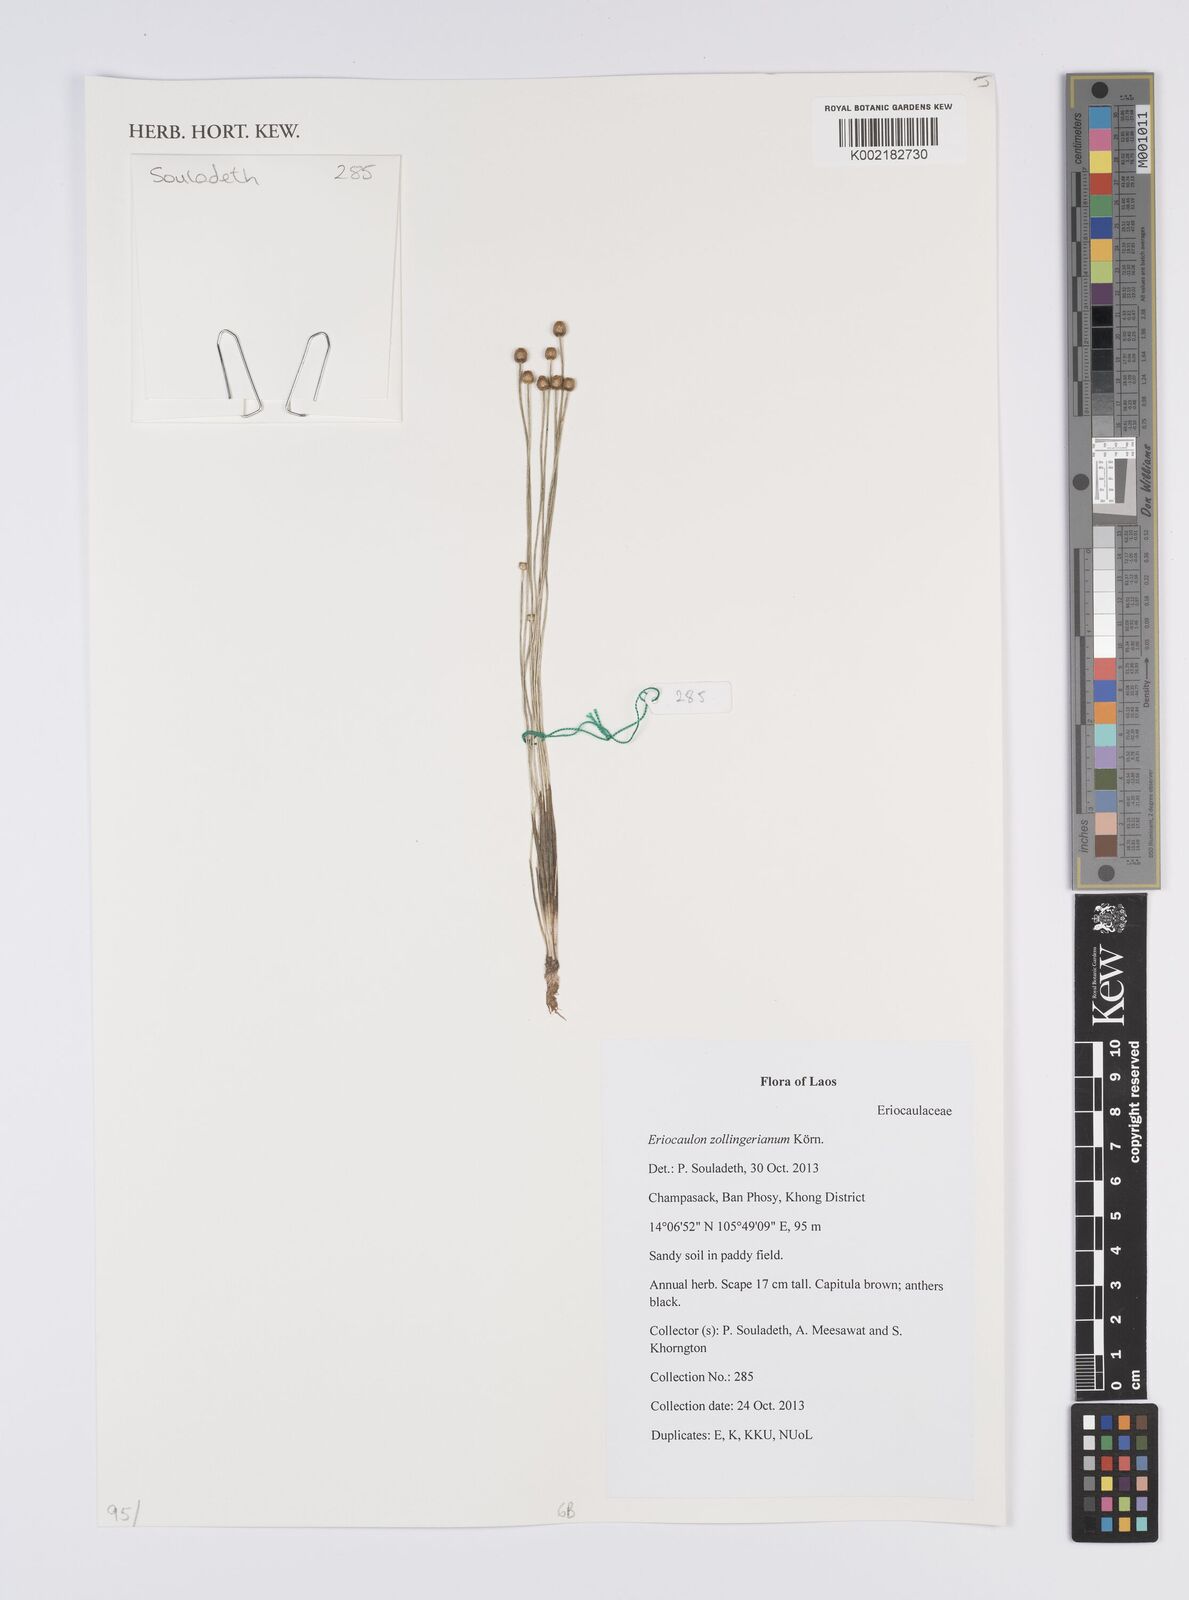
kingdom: Plantae
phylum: Tracheophyta
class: Liliopsida
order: Poales
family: Eriocaulaceae
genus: Eriocaulon
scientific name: Eriocaulon zollingerianum
